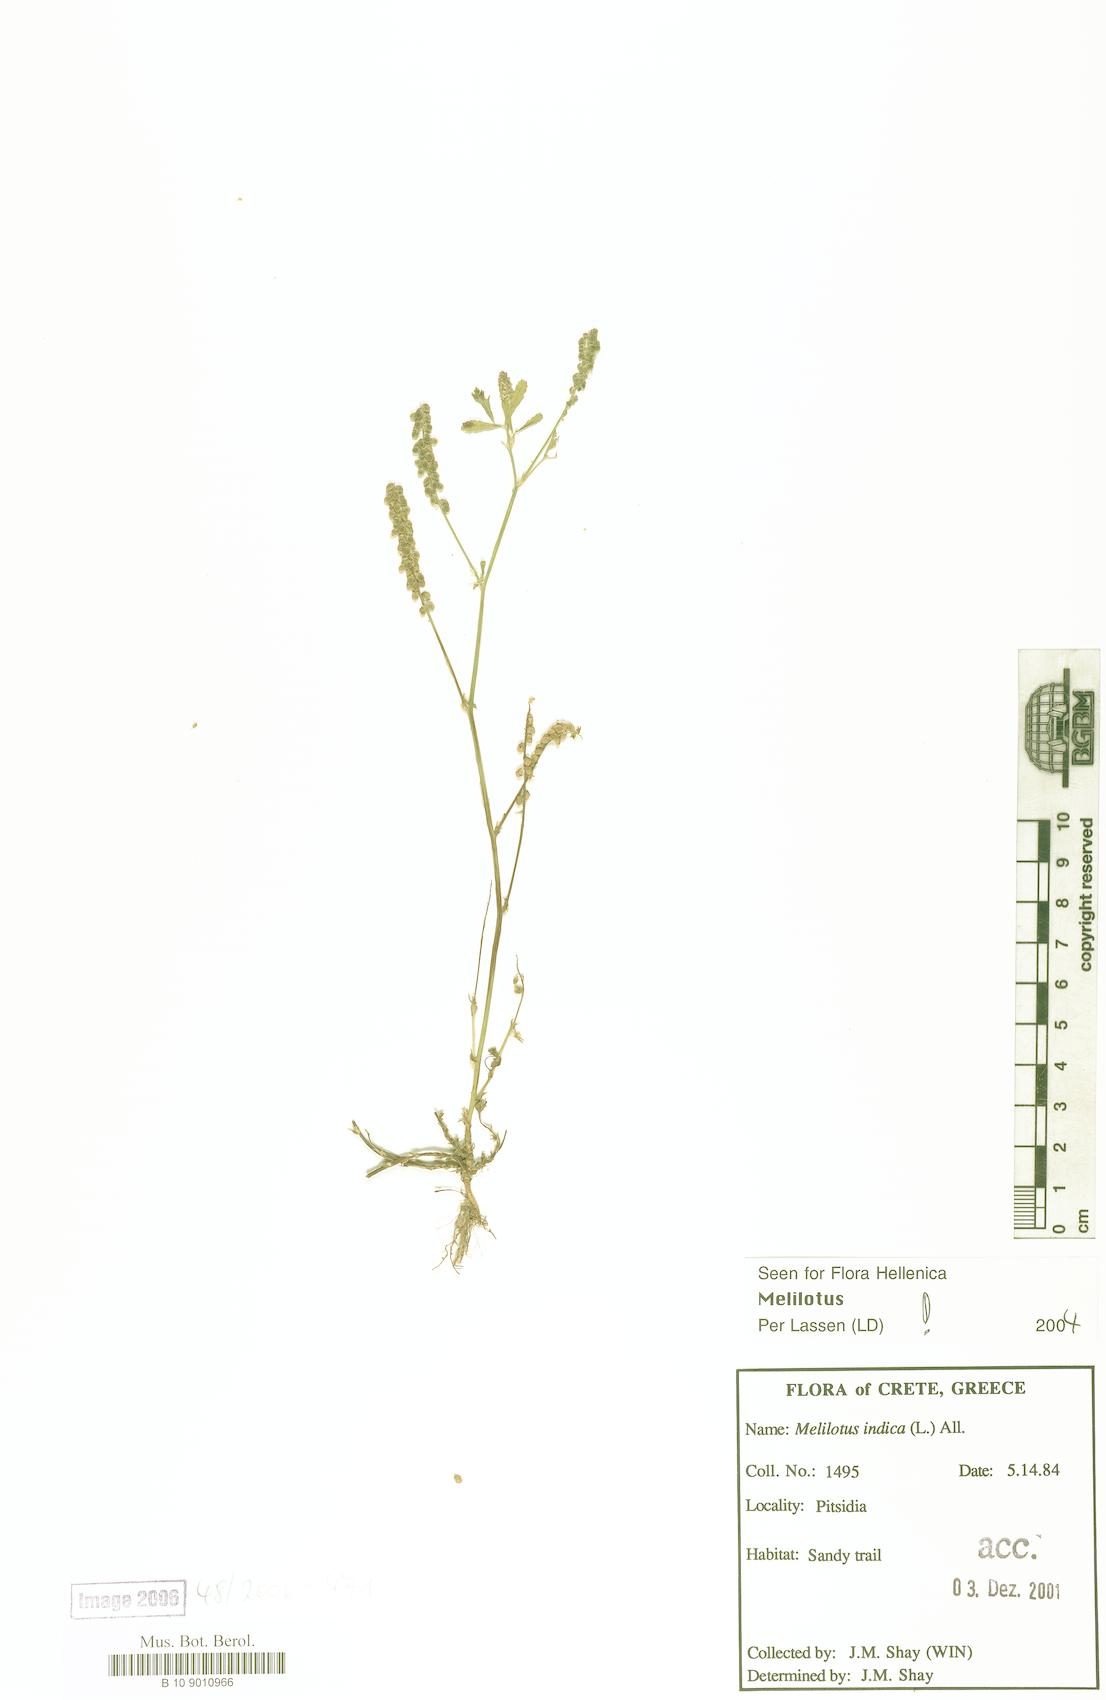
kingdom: Plantae
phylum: Tracheophyta
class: Magnoliopsida
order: Fabales
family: Fabaceae
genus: Melilotus
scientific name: Melilotus indicus
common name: Small melilot
